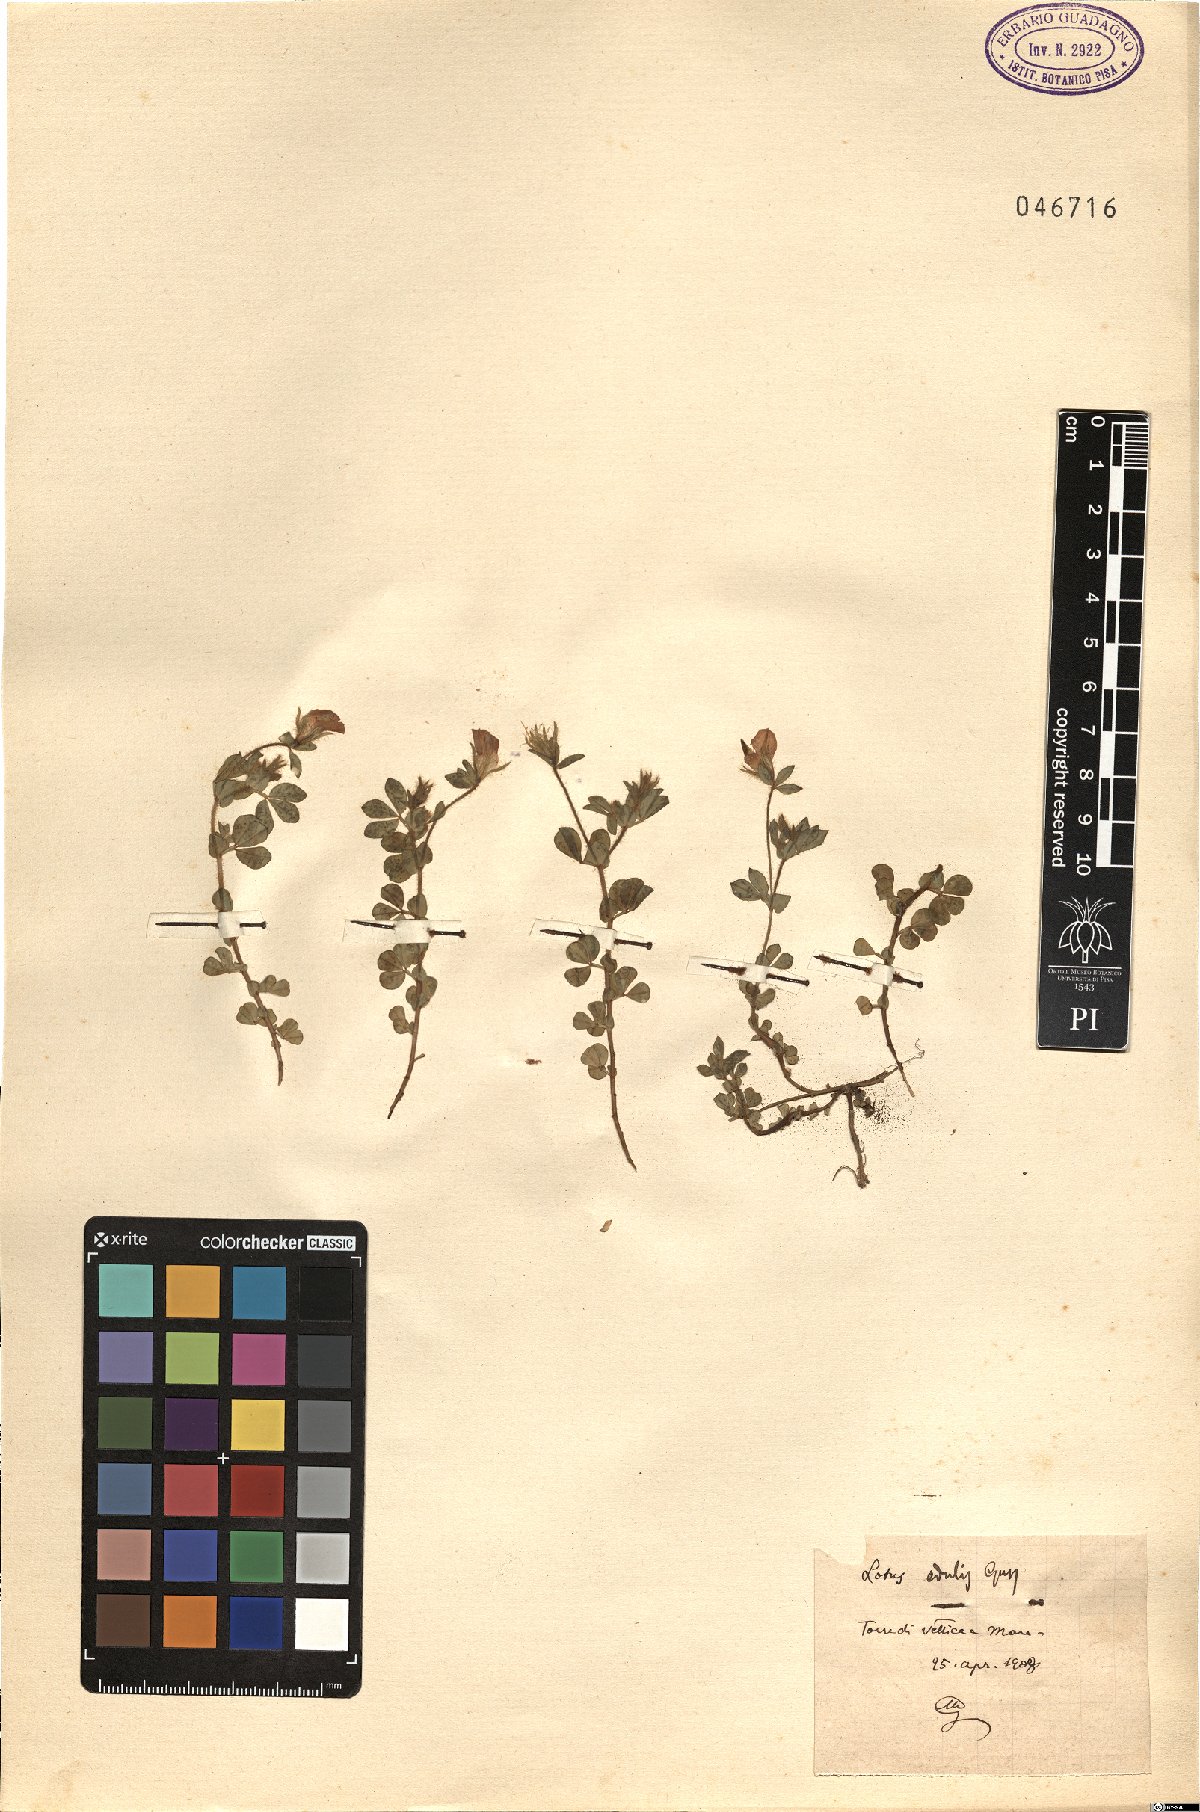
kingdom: Plantae
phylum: Tracheophyta
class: Magnoliopsida
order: Fabales
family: Fabaceae
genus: Lotus
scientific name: Lotus edulis
